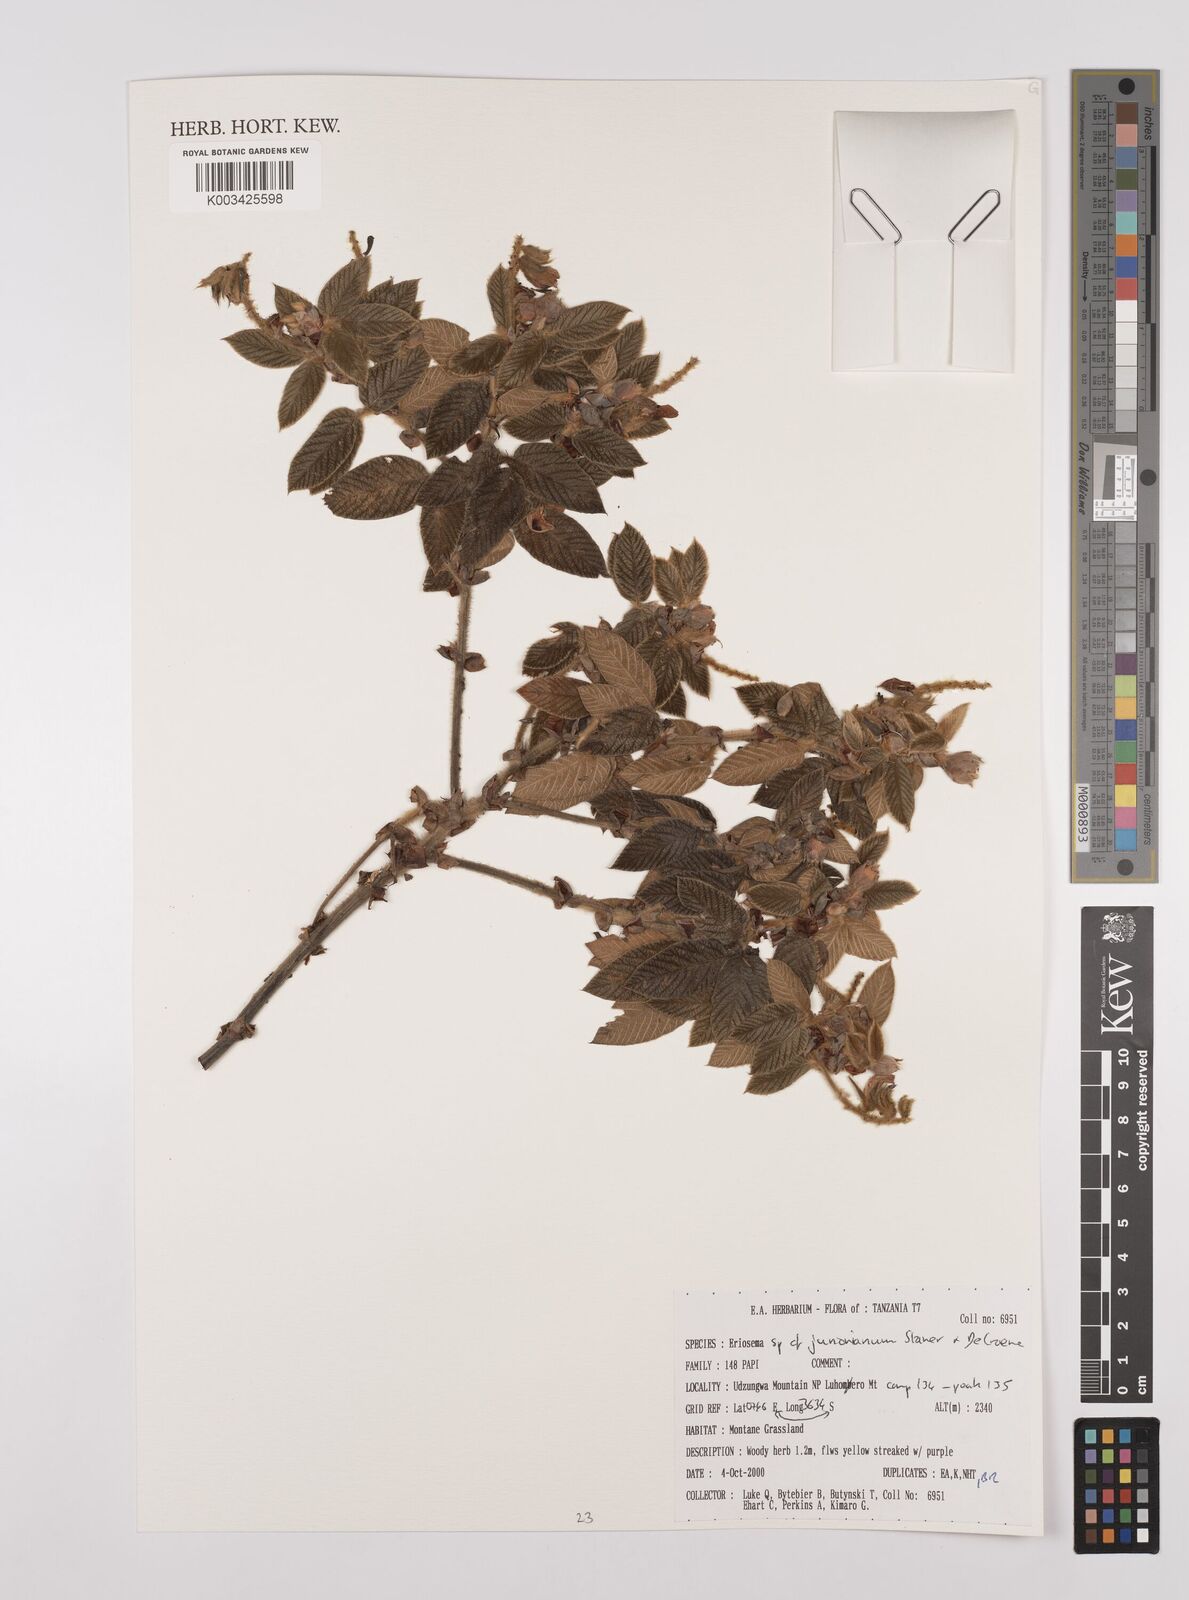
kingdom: Plantae
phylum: Tracheophyta
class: Magnoliopsida
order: Fabales
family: Fabaceae
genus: Eriosema
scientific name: Eriosema jurionianum
